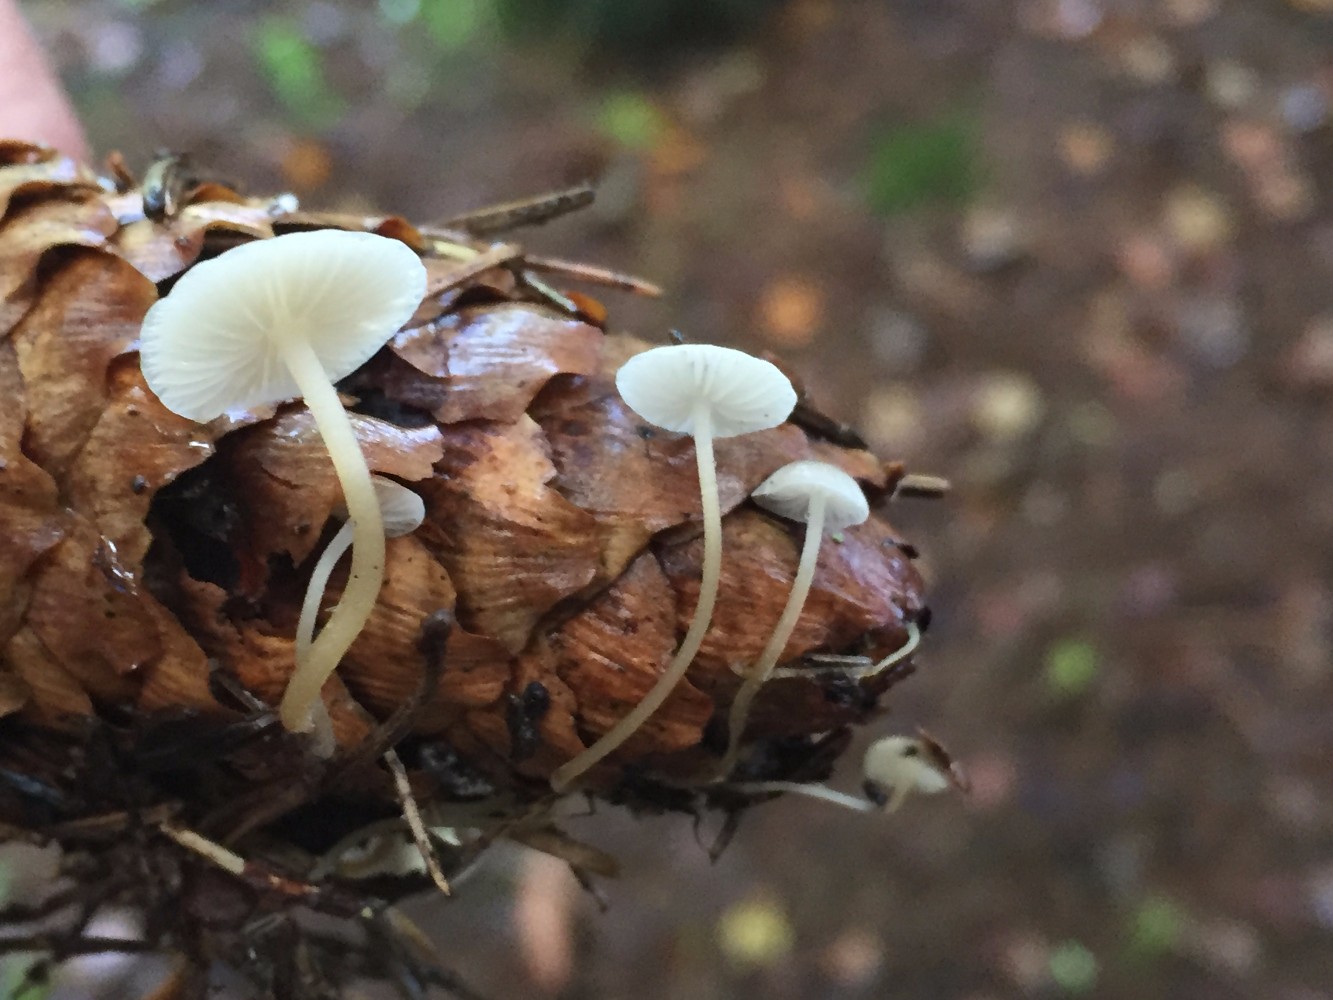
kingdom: Fungi
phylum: Basidiomycota
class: Agaricomycetes
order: Agaricales
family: Physalacriaceae
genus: Strobilurus
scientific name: Strobilurus esculentus
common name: gran-koglehat
